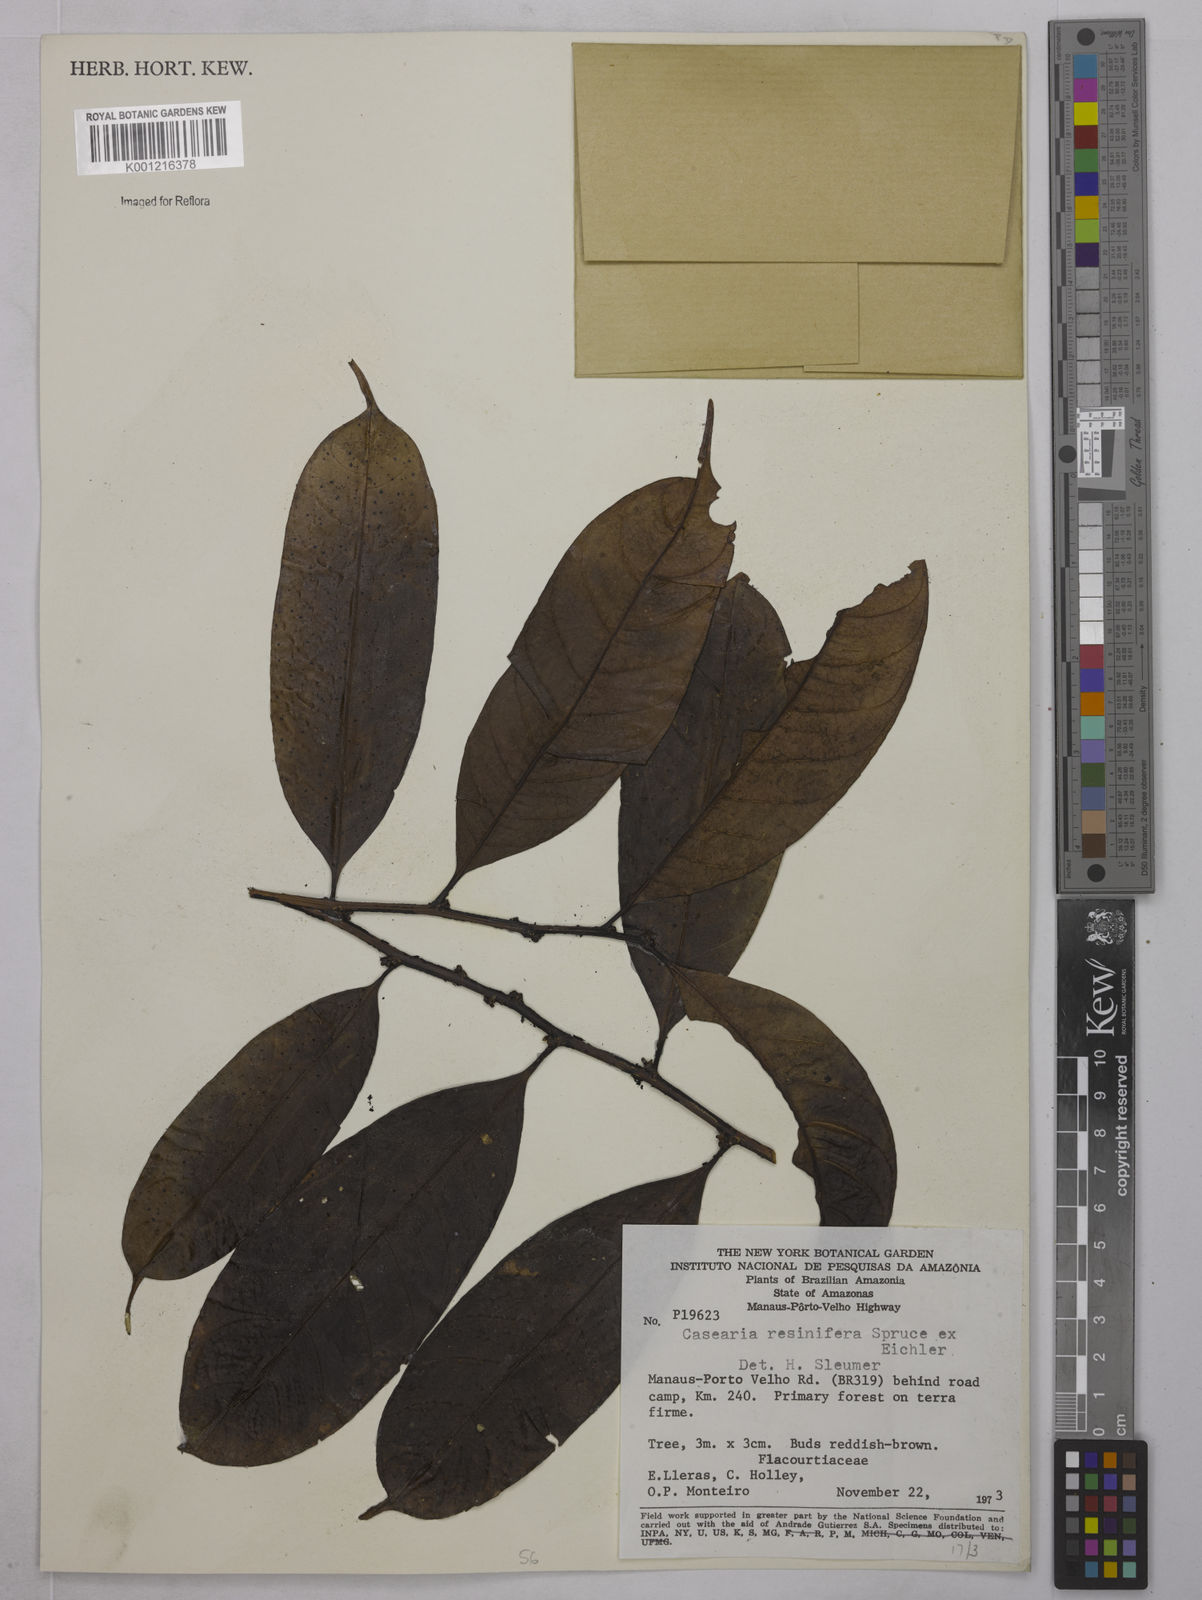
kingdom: Plantae
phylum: Tracheophyta
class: Magnoliopsida
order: Malpighiales
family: Salicaceae
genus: Casearia
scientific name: Casearia resinifera
